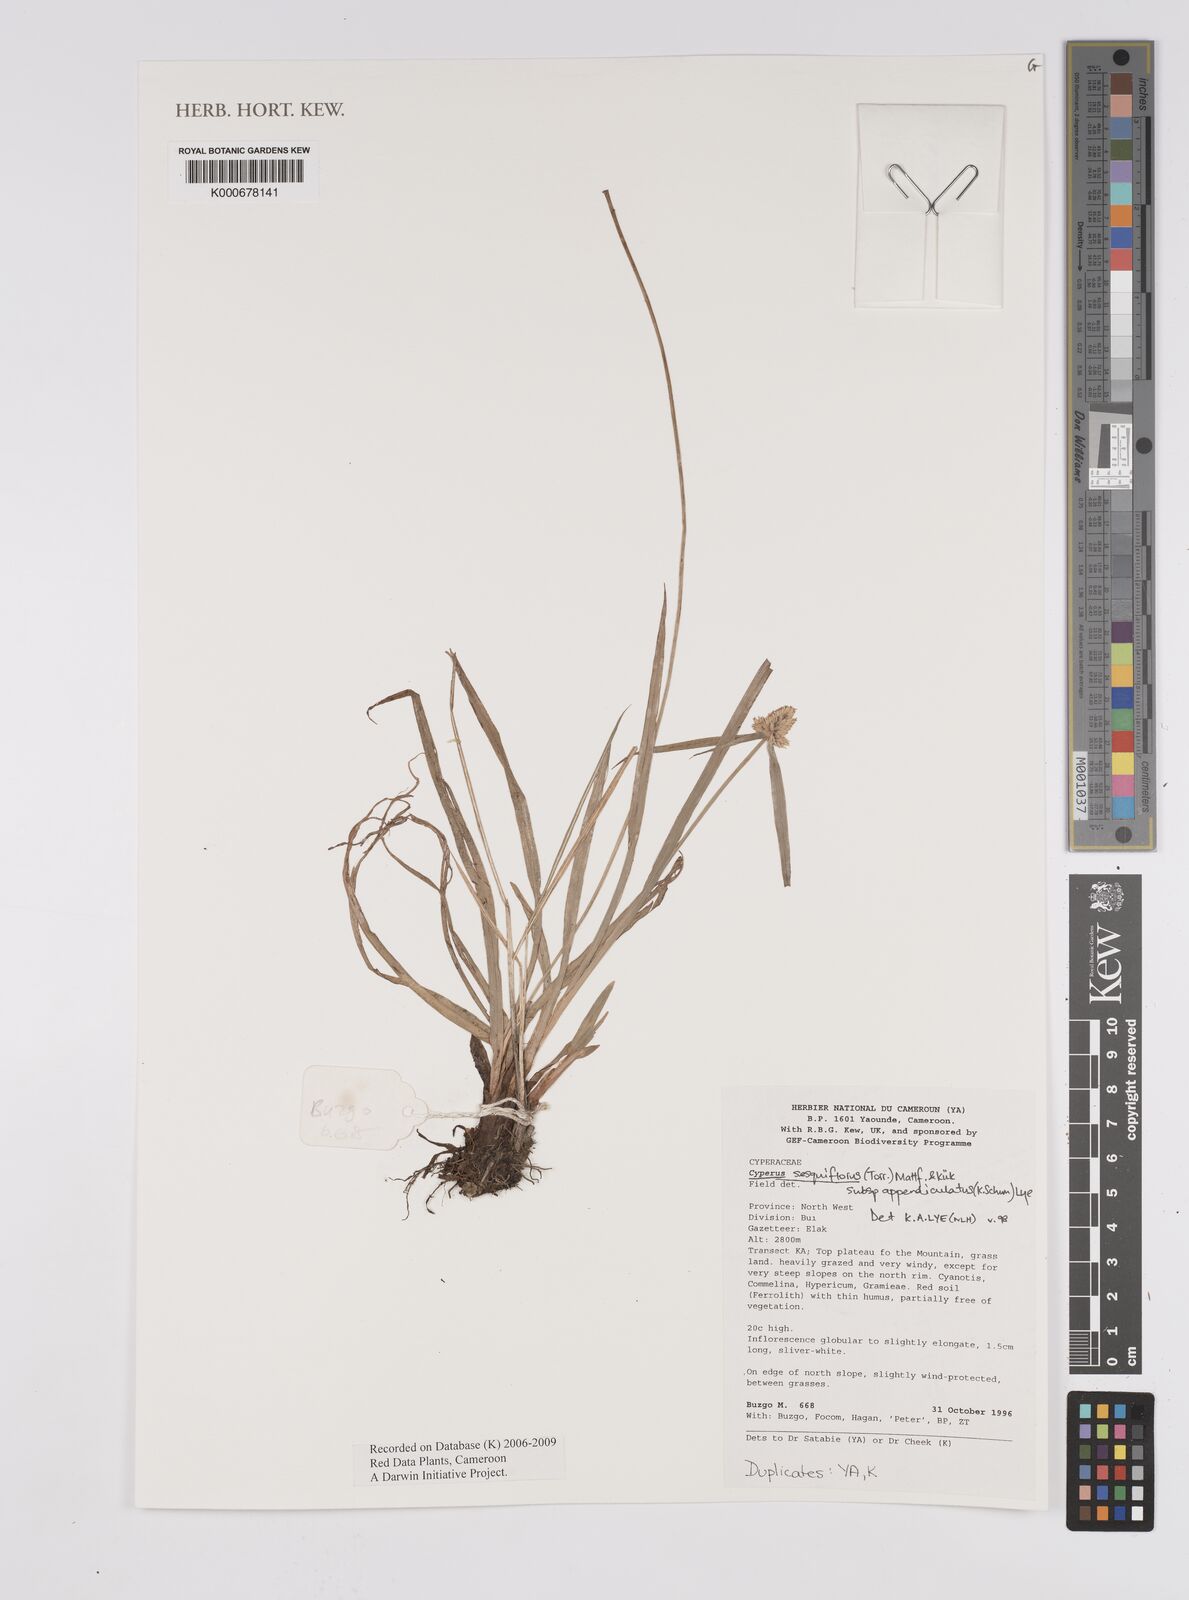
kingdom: Plantae
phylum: Tracheophyta
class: Liliopsida
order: Poales
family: Cyperaceae
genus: Cyperus
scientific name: Cyperus sesquiflorus
